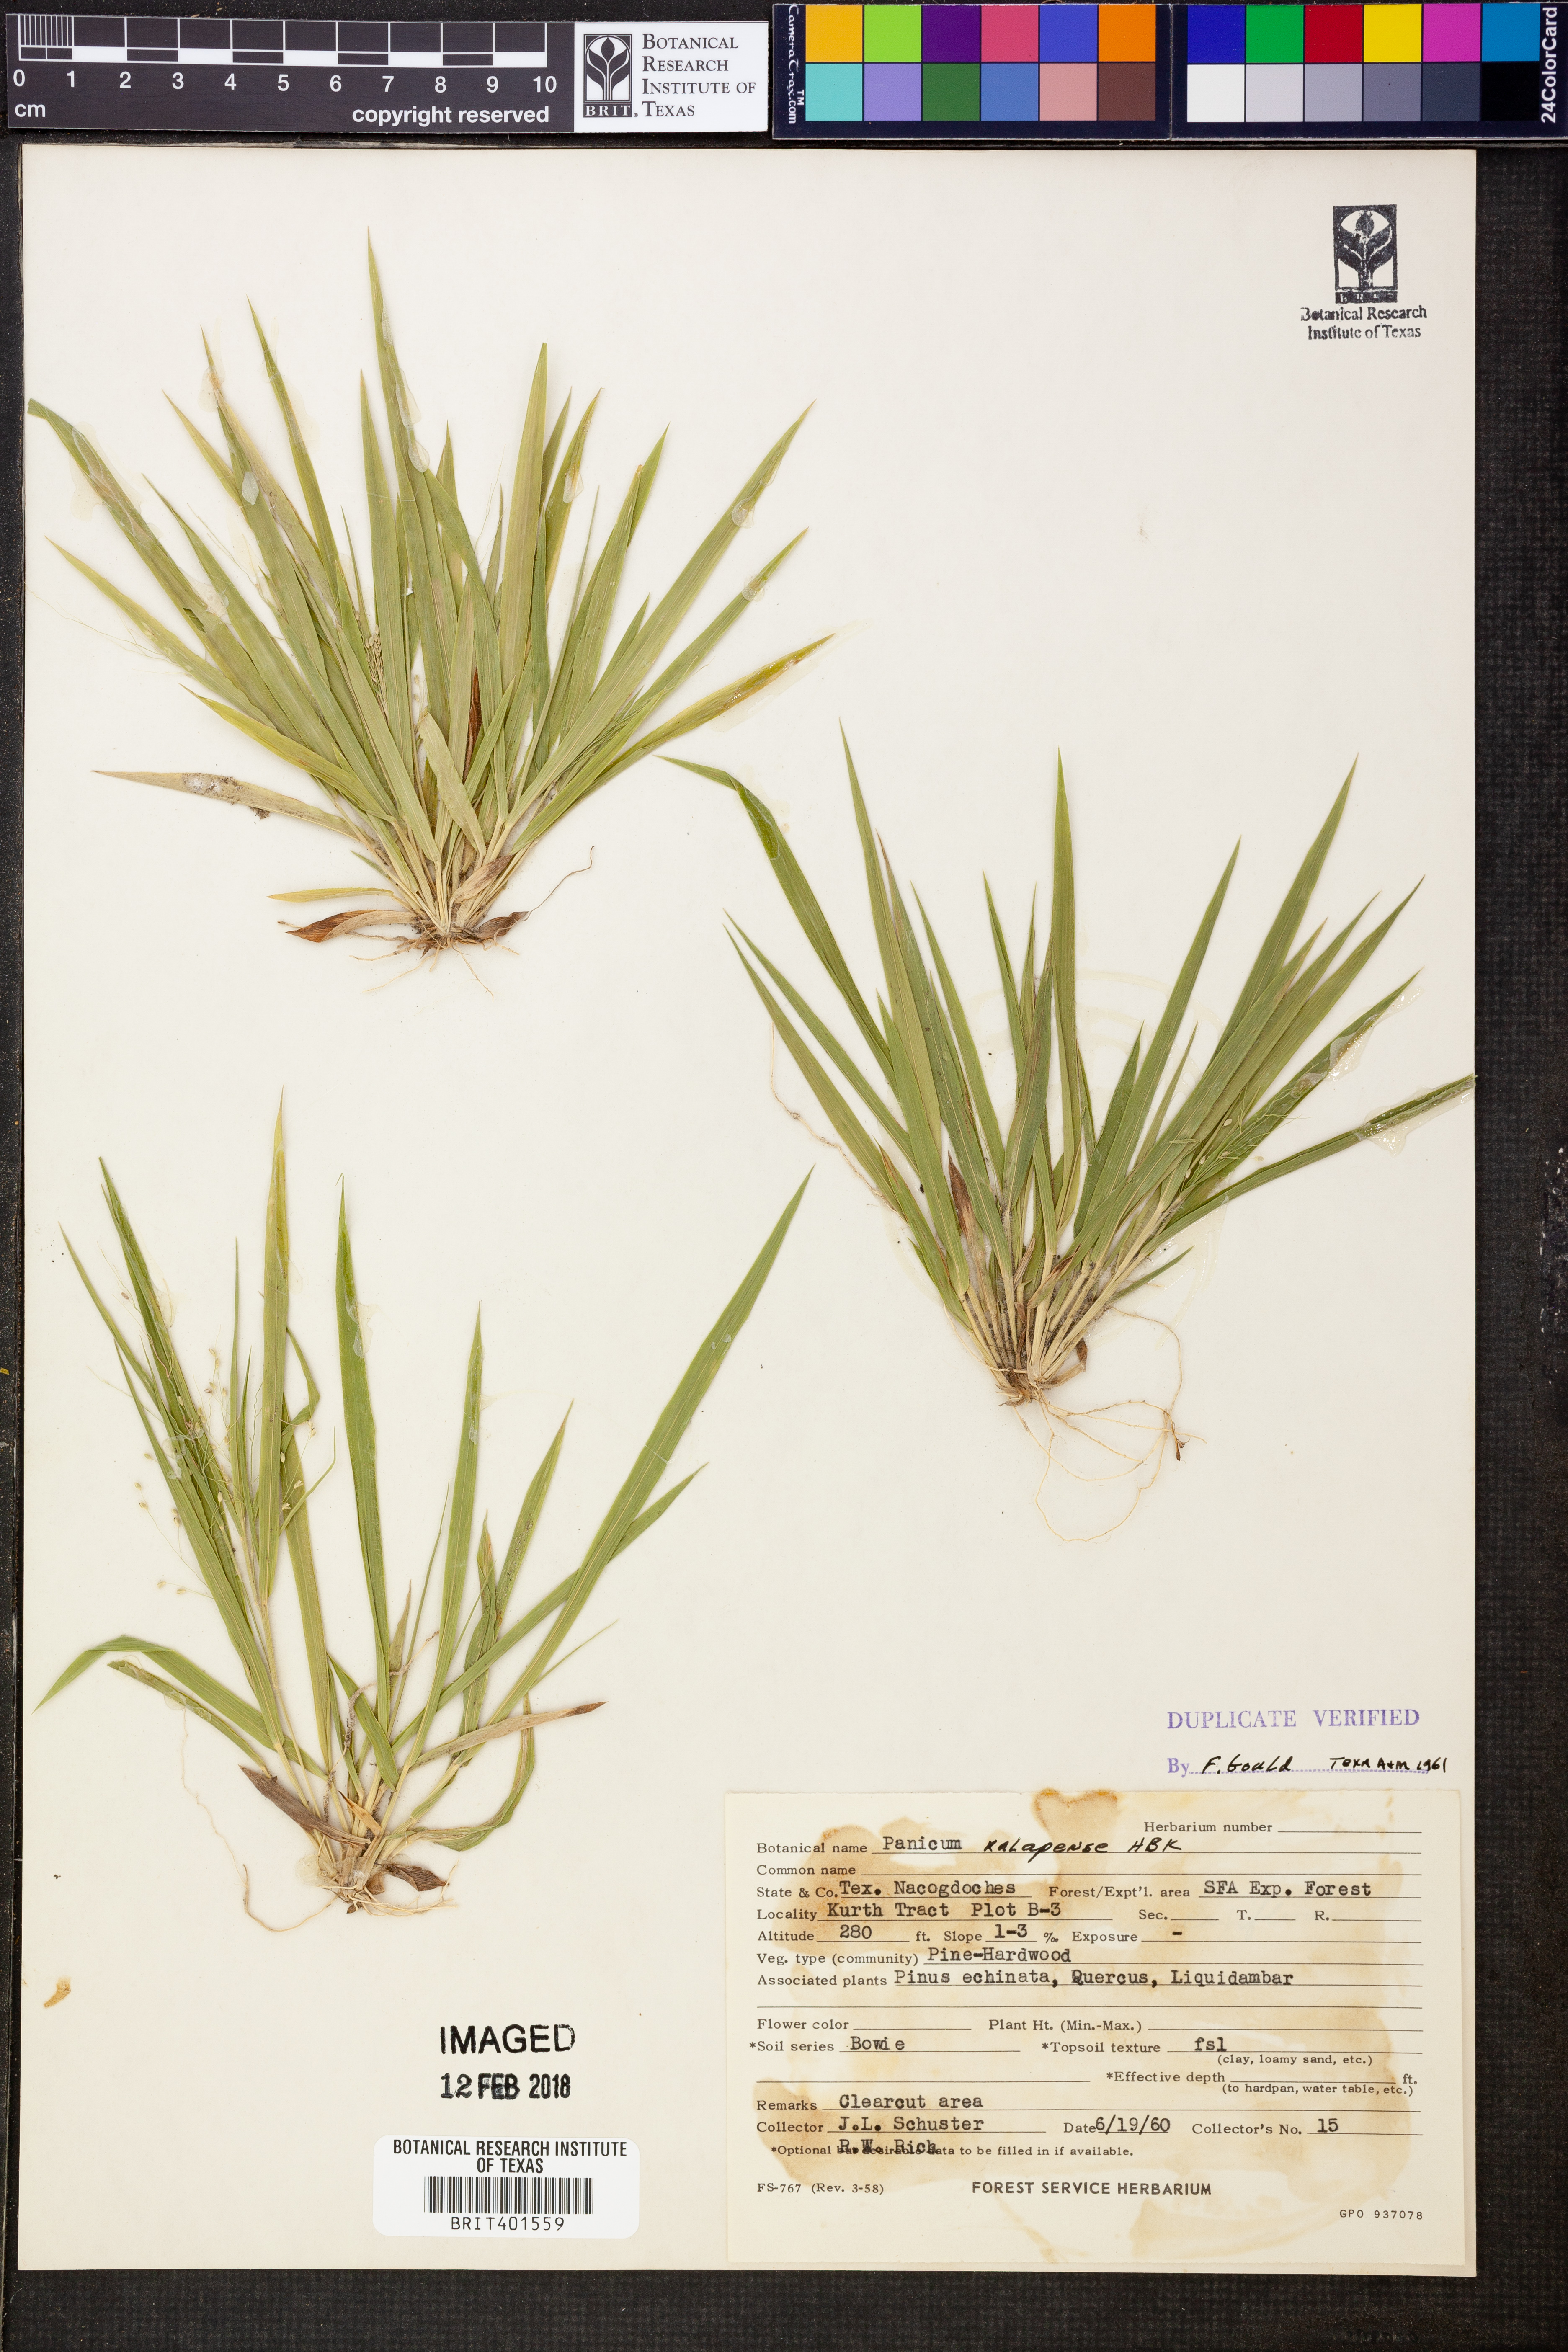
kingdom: Plantae
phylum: Tracheophyta
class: Liliopsida
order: Poales
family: Poaceae
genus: Dichanthelium
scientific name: Dichanthelium xalapense
